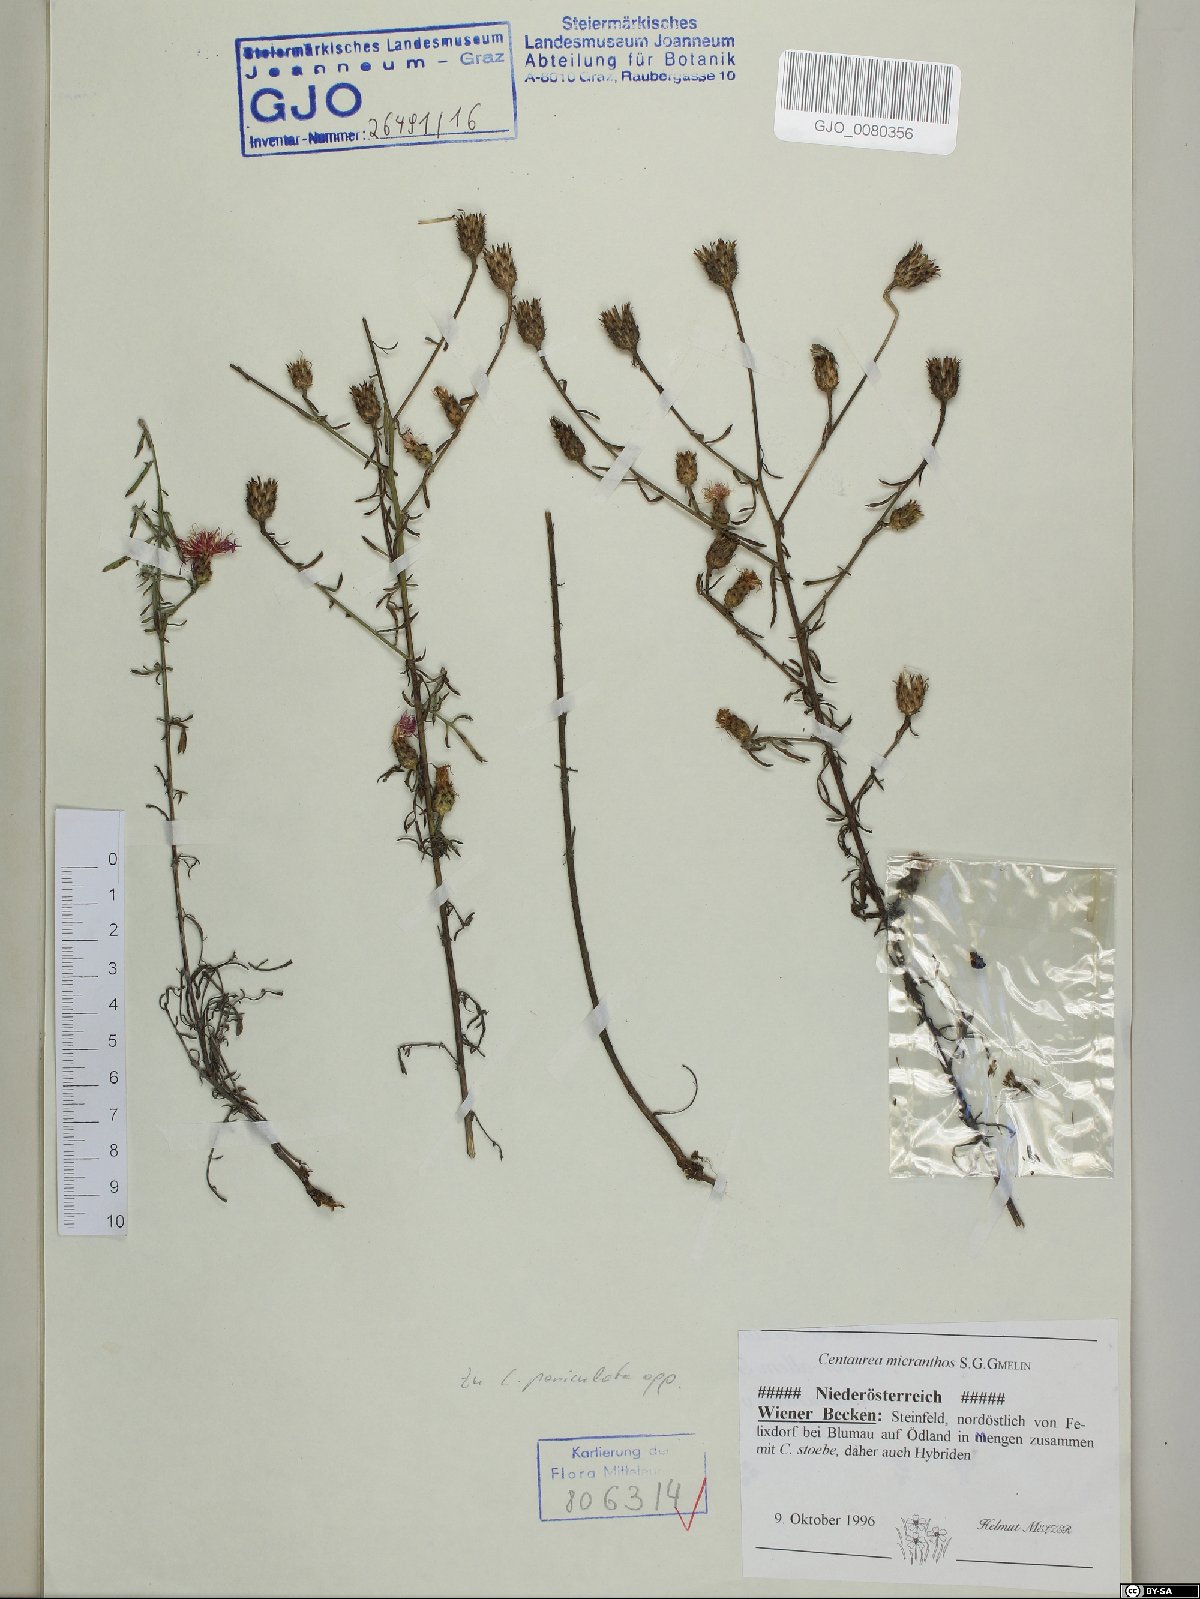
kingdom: Plantae
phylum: Tracheophyta
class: Magnoliopsida
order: Asterales
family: Asteraceae
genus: Centaurea
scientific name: Centaurea micranthos
